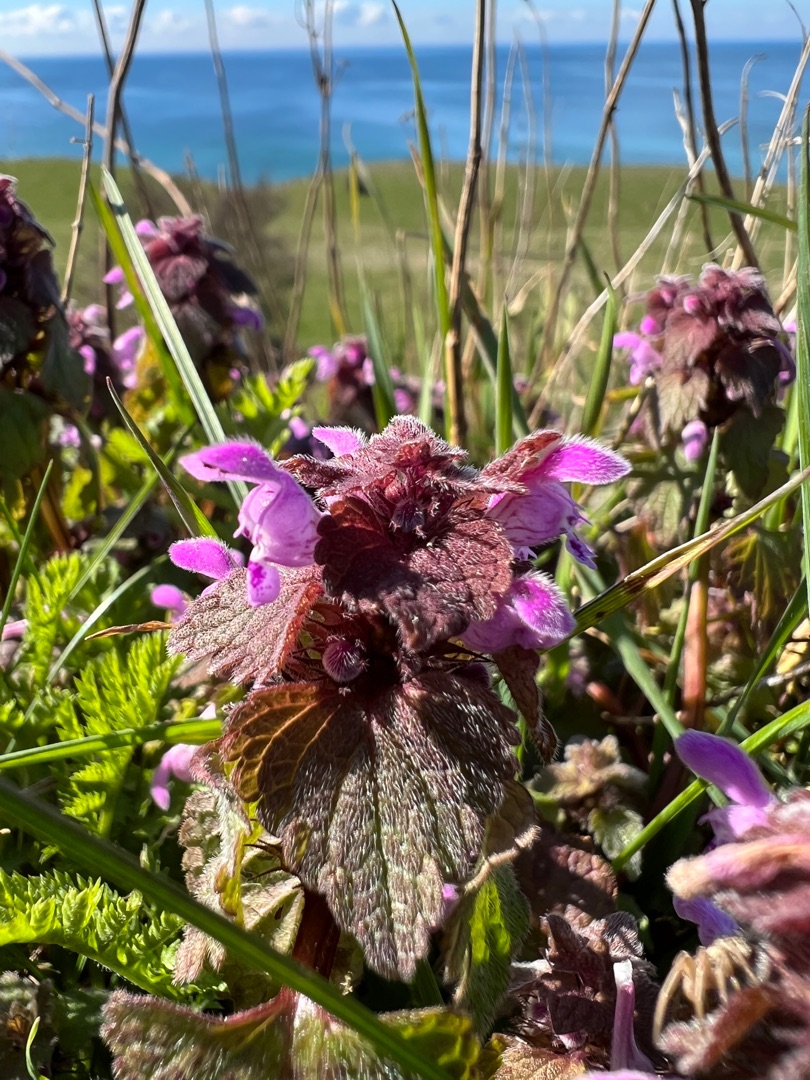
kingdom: Plantae
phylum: Tracheophyta
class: Magnoliopsida
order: Lamiales
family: Lamiaceae
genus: Lamium
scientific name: Lamium purpureum
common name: Rød tvetand
